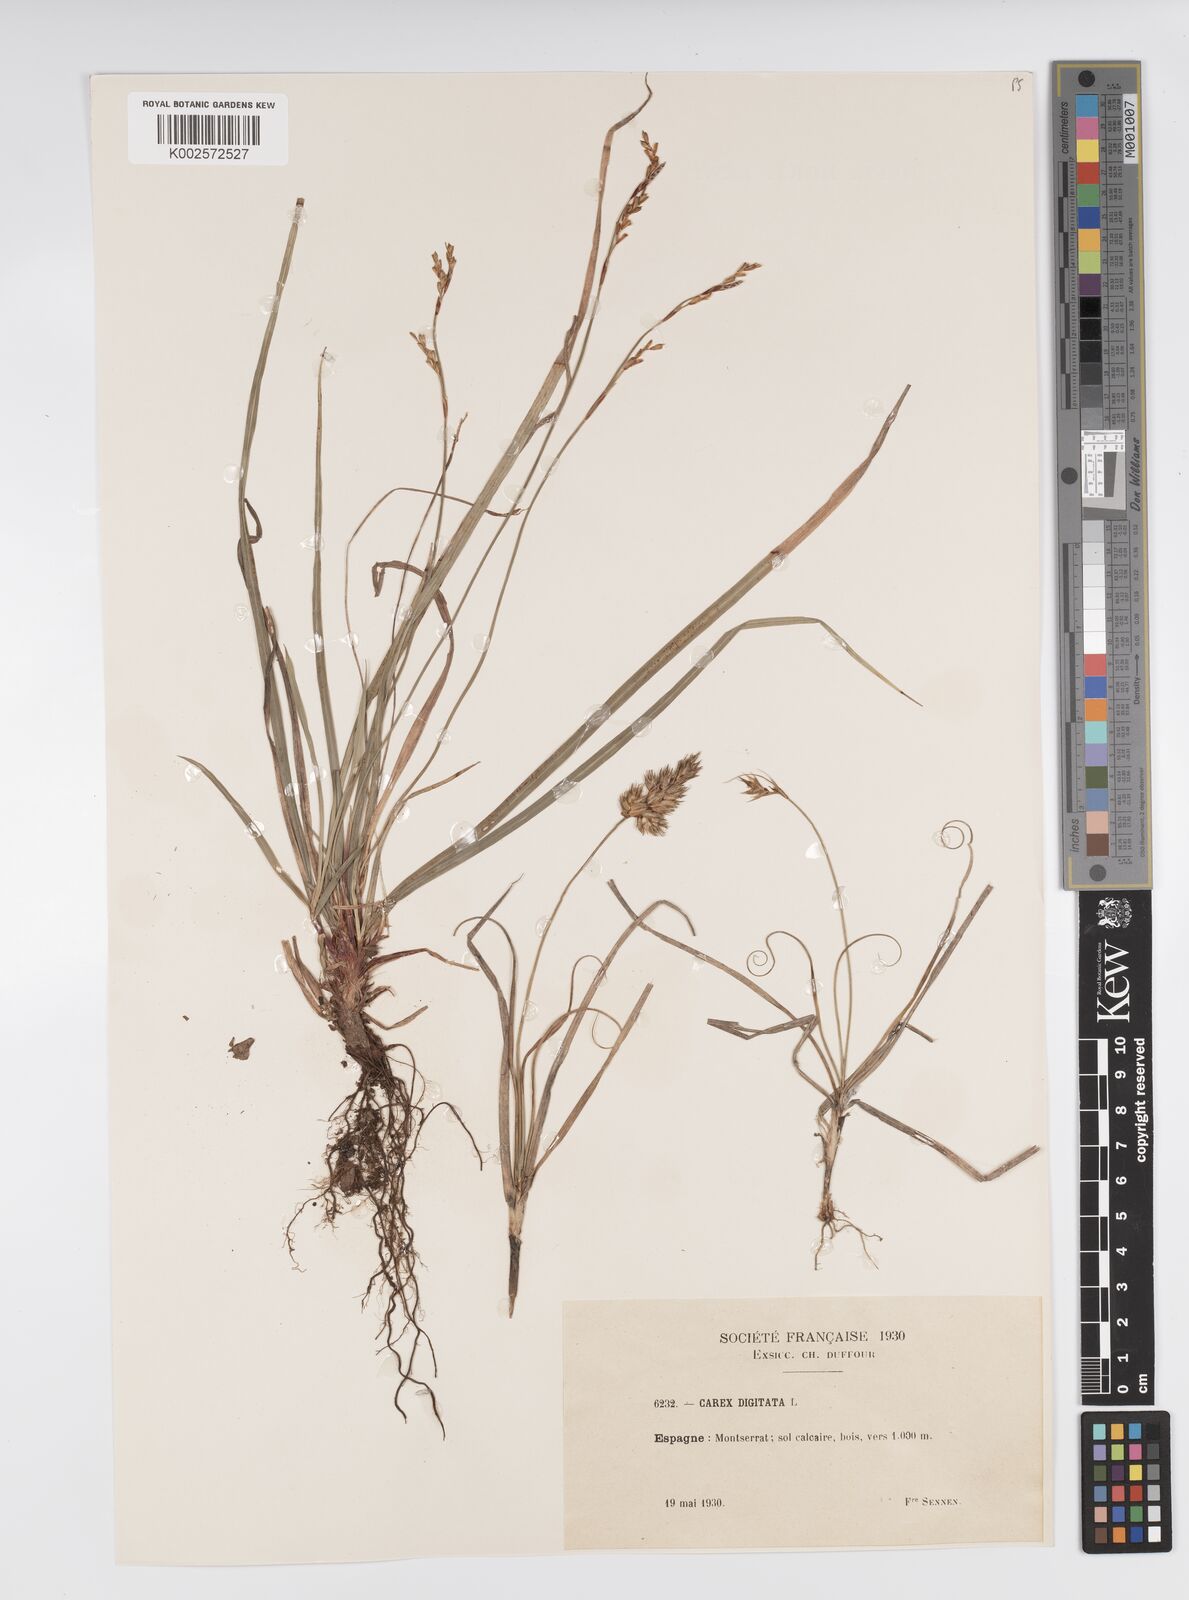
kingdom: Plantae
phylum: Tracheophyta
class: Liliopsida
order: Poales
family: Cyperaceae
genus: Carex
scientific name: Carex digitata
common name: Fingered sedge
